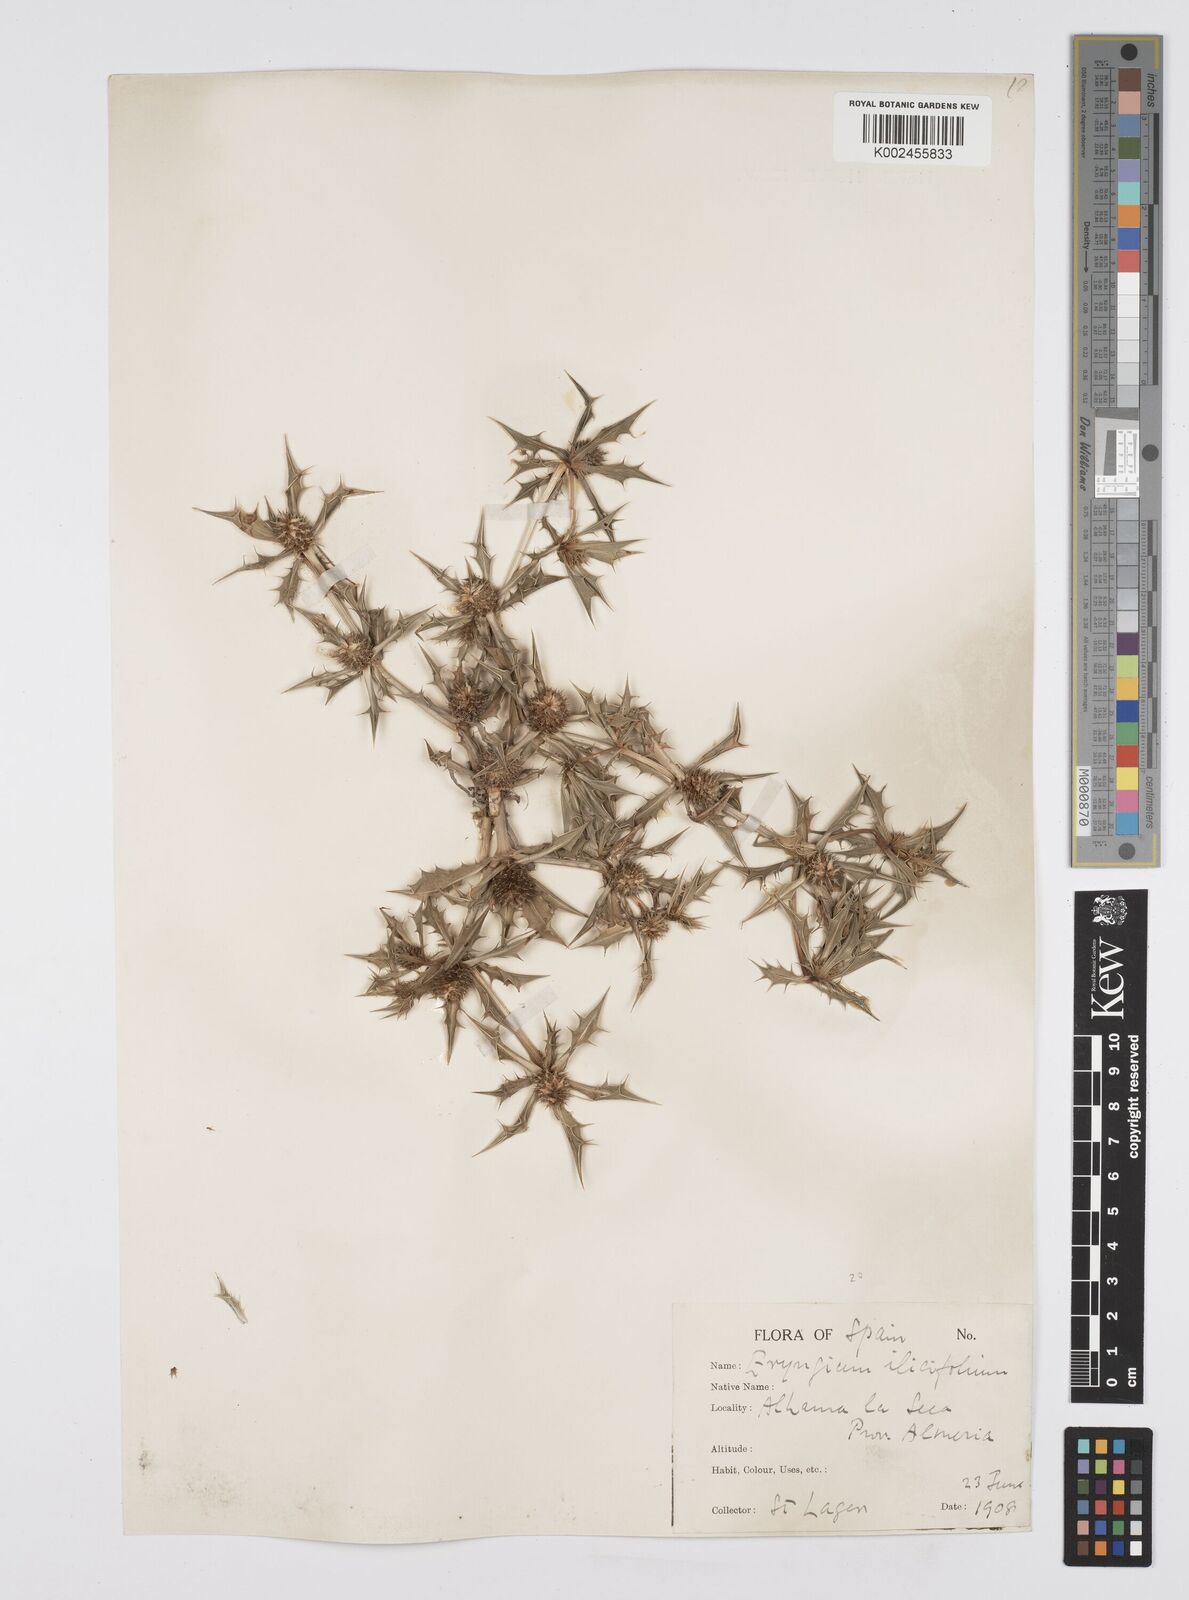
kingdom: Plantae
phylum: Tracheophyta
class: Magnoliopsida
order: Apiales
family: Apiaceae
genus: Eryngium
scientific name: Eryngium
